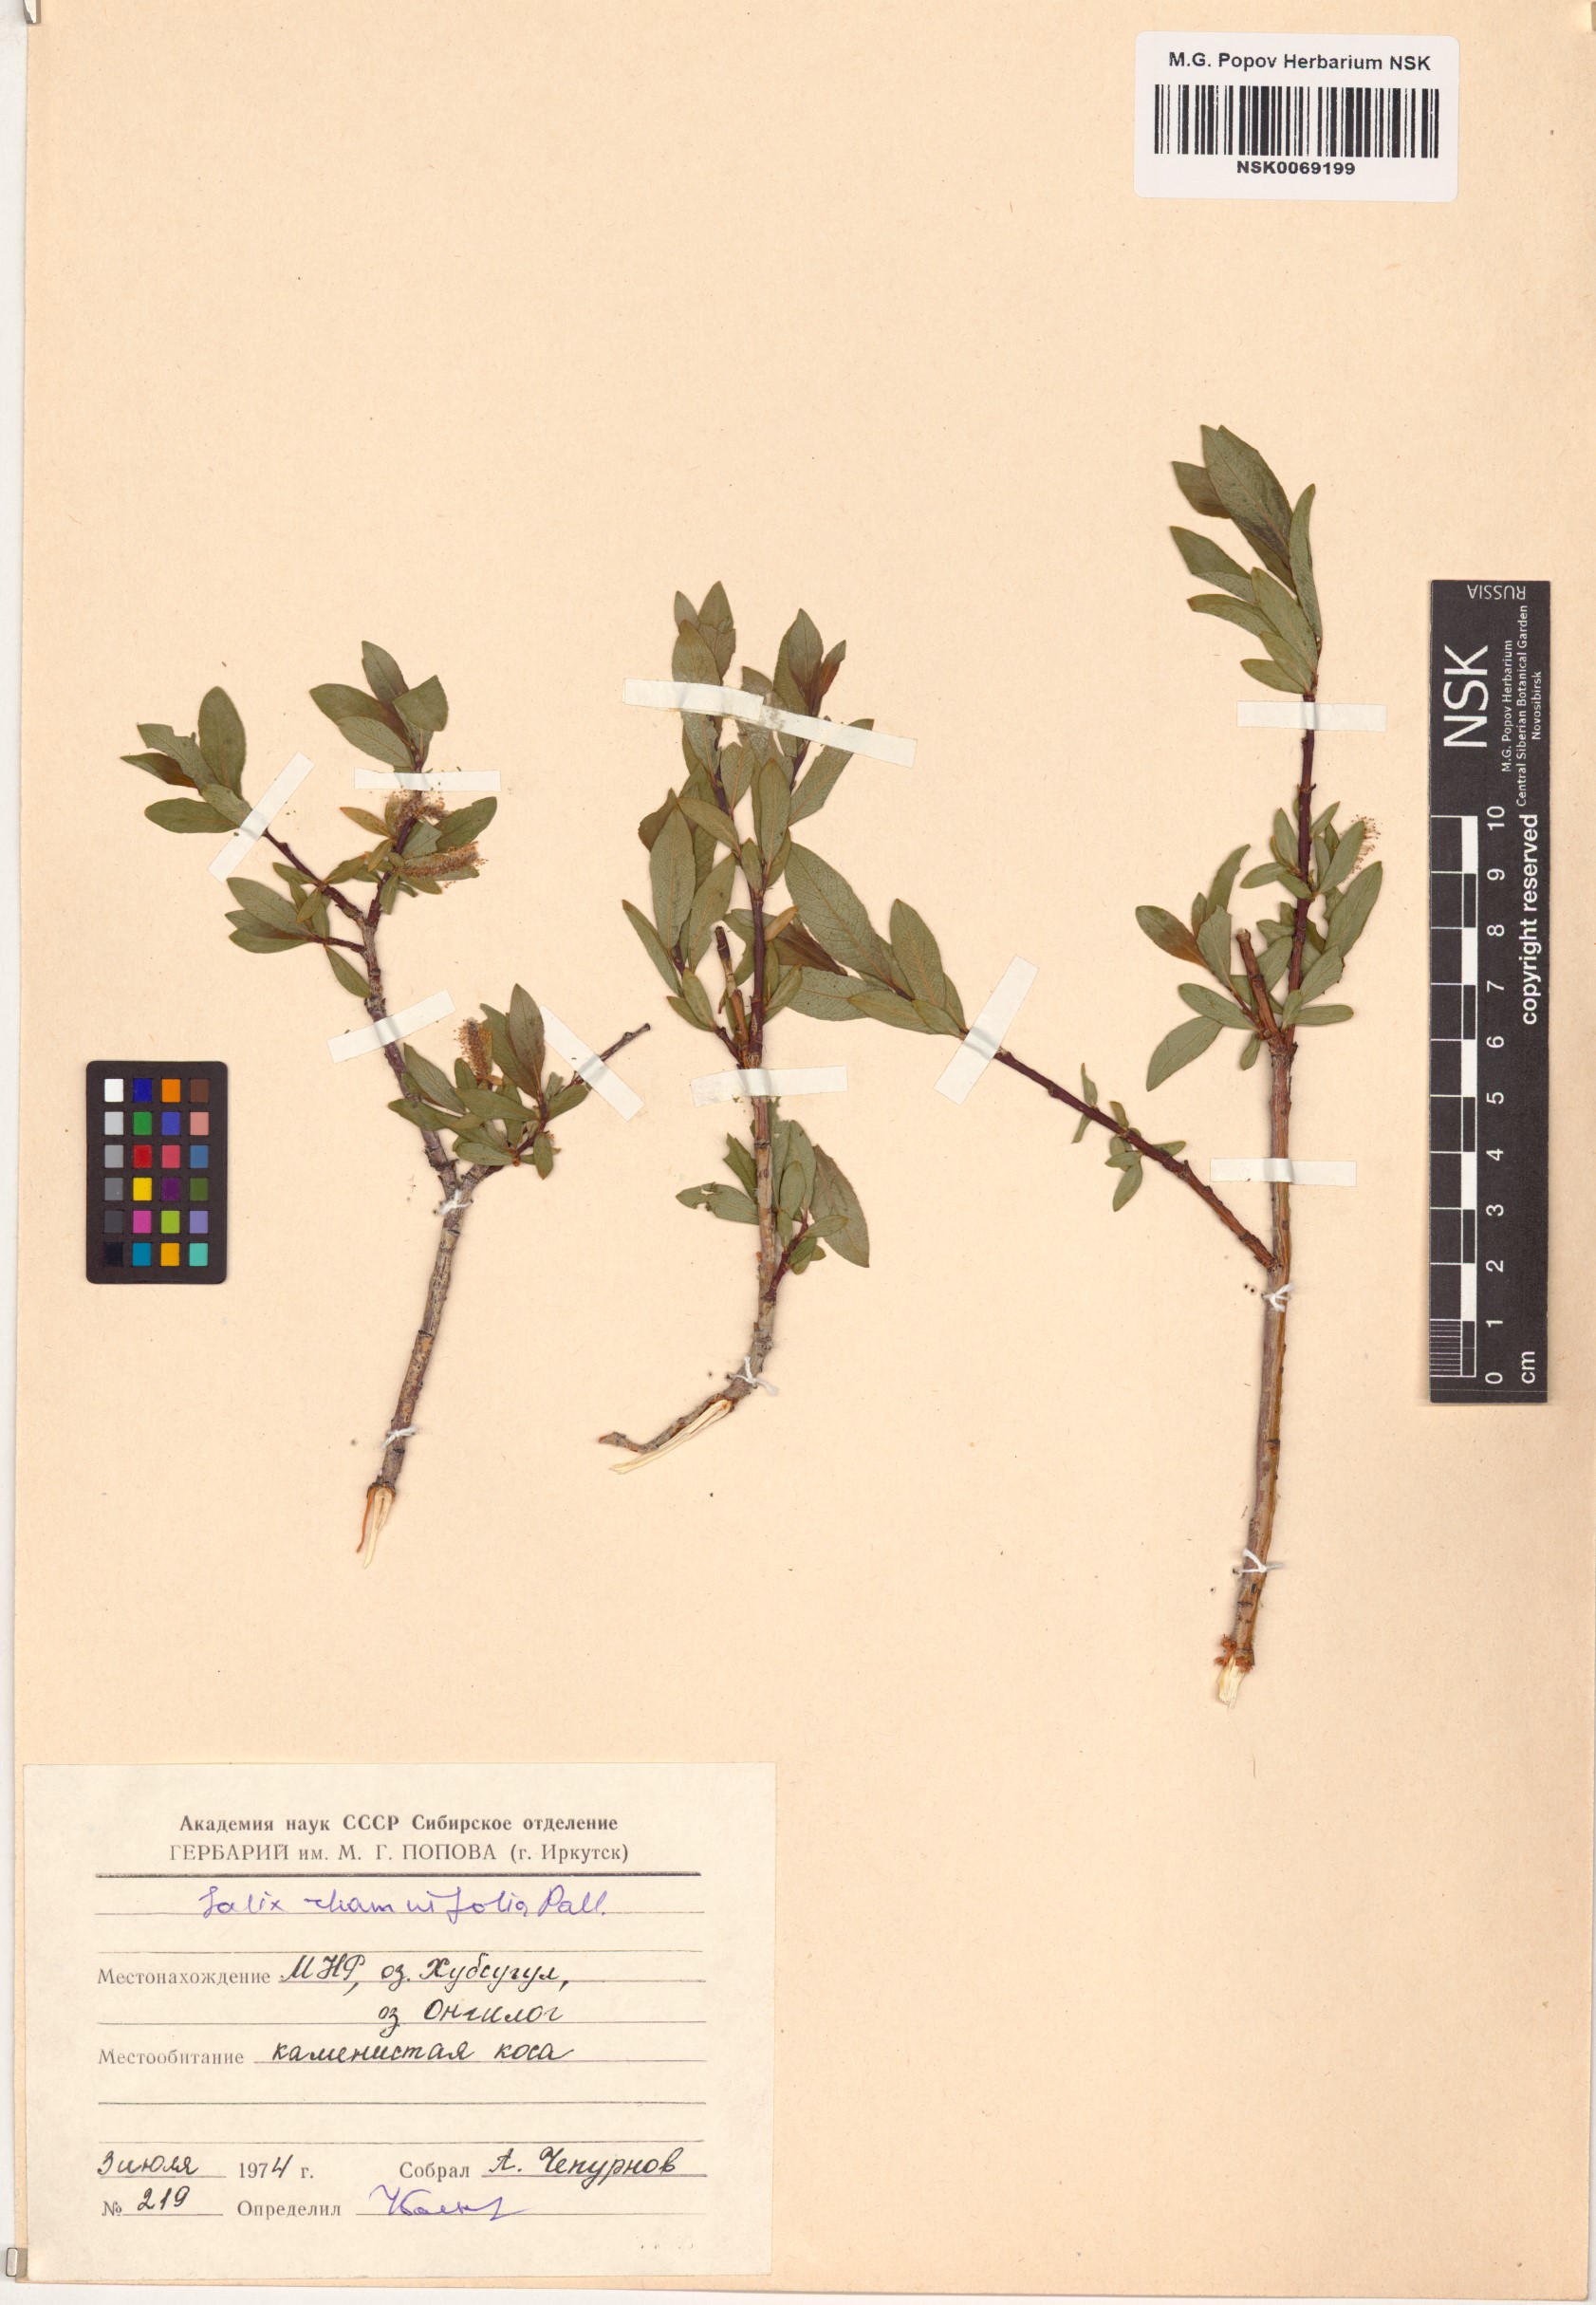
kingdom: Plantae
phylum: Tracheophyta
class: Magnoliopsida
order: Malpighiales
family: Salicaceae
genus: Salix
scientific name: Salix rhamnifolia
